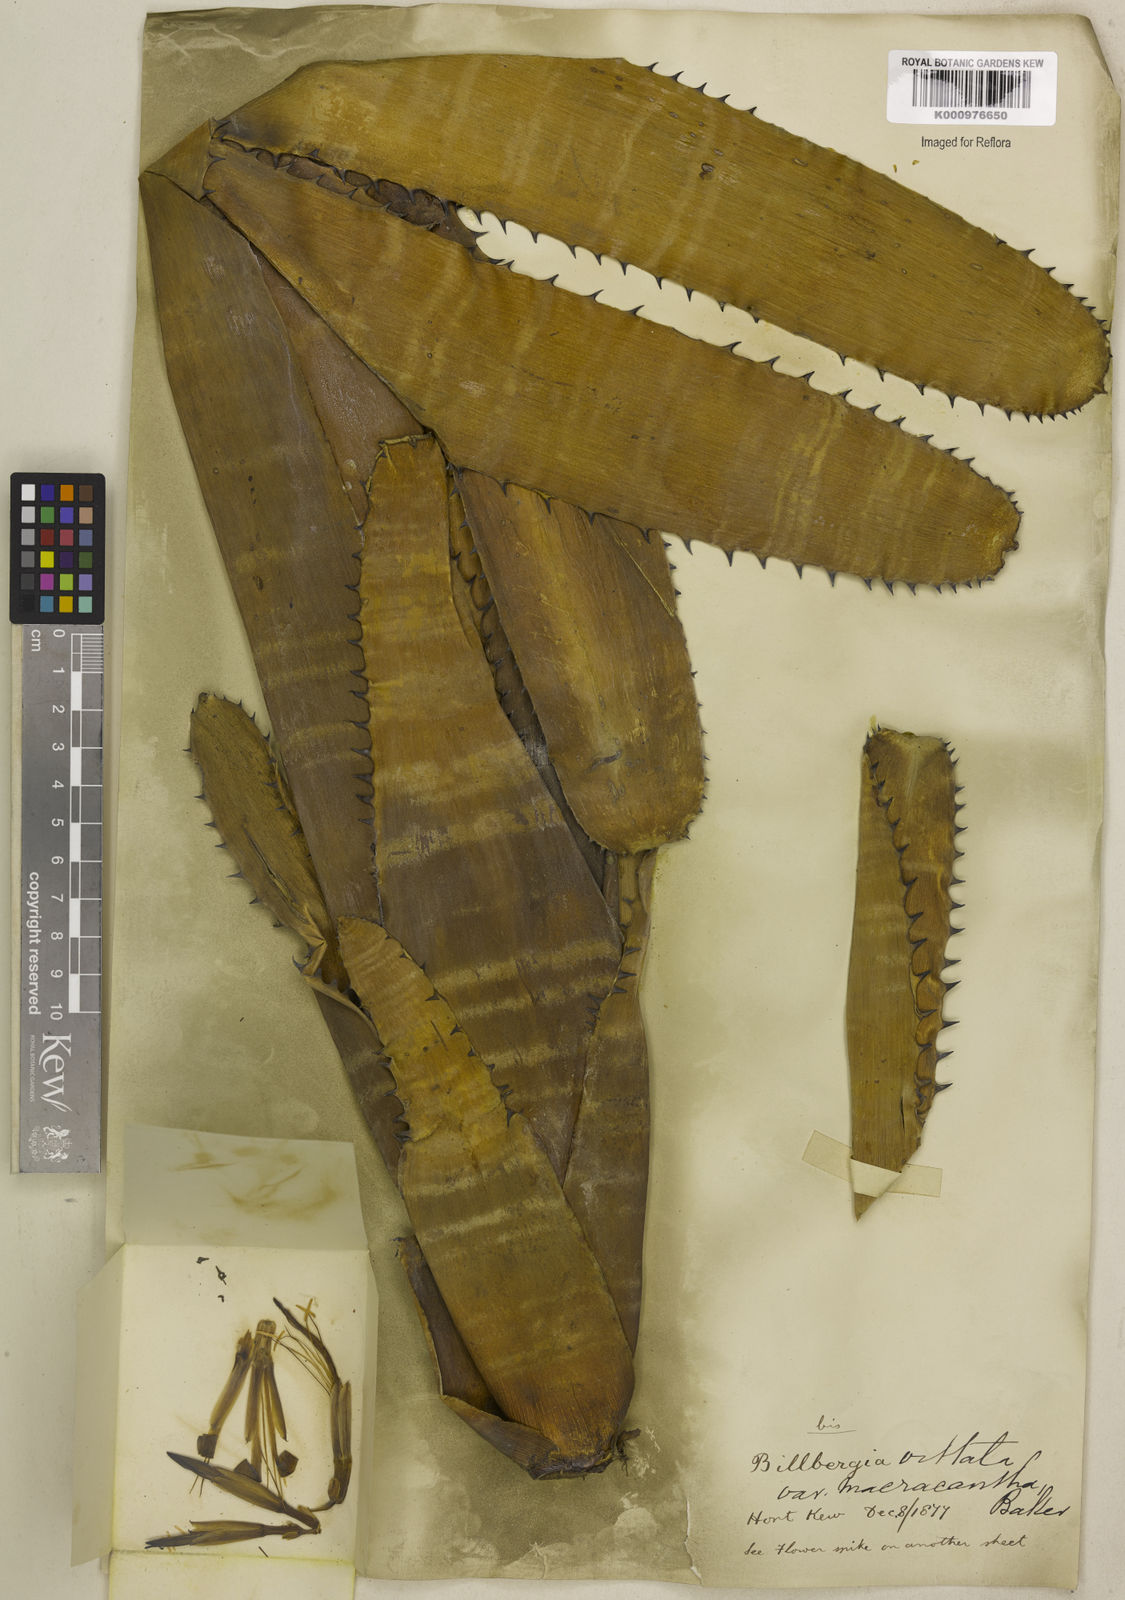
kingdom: Plantae
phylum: Tracheophyta
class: Liliopsida
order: Poales
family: Bromeliaceae
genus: Billbergia
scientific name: Billbergia vittata
